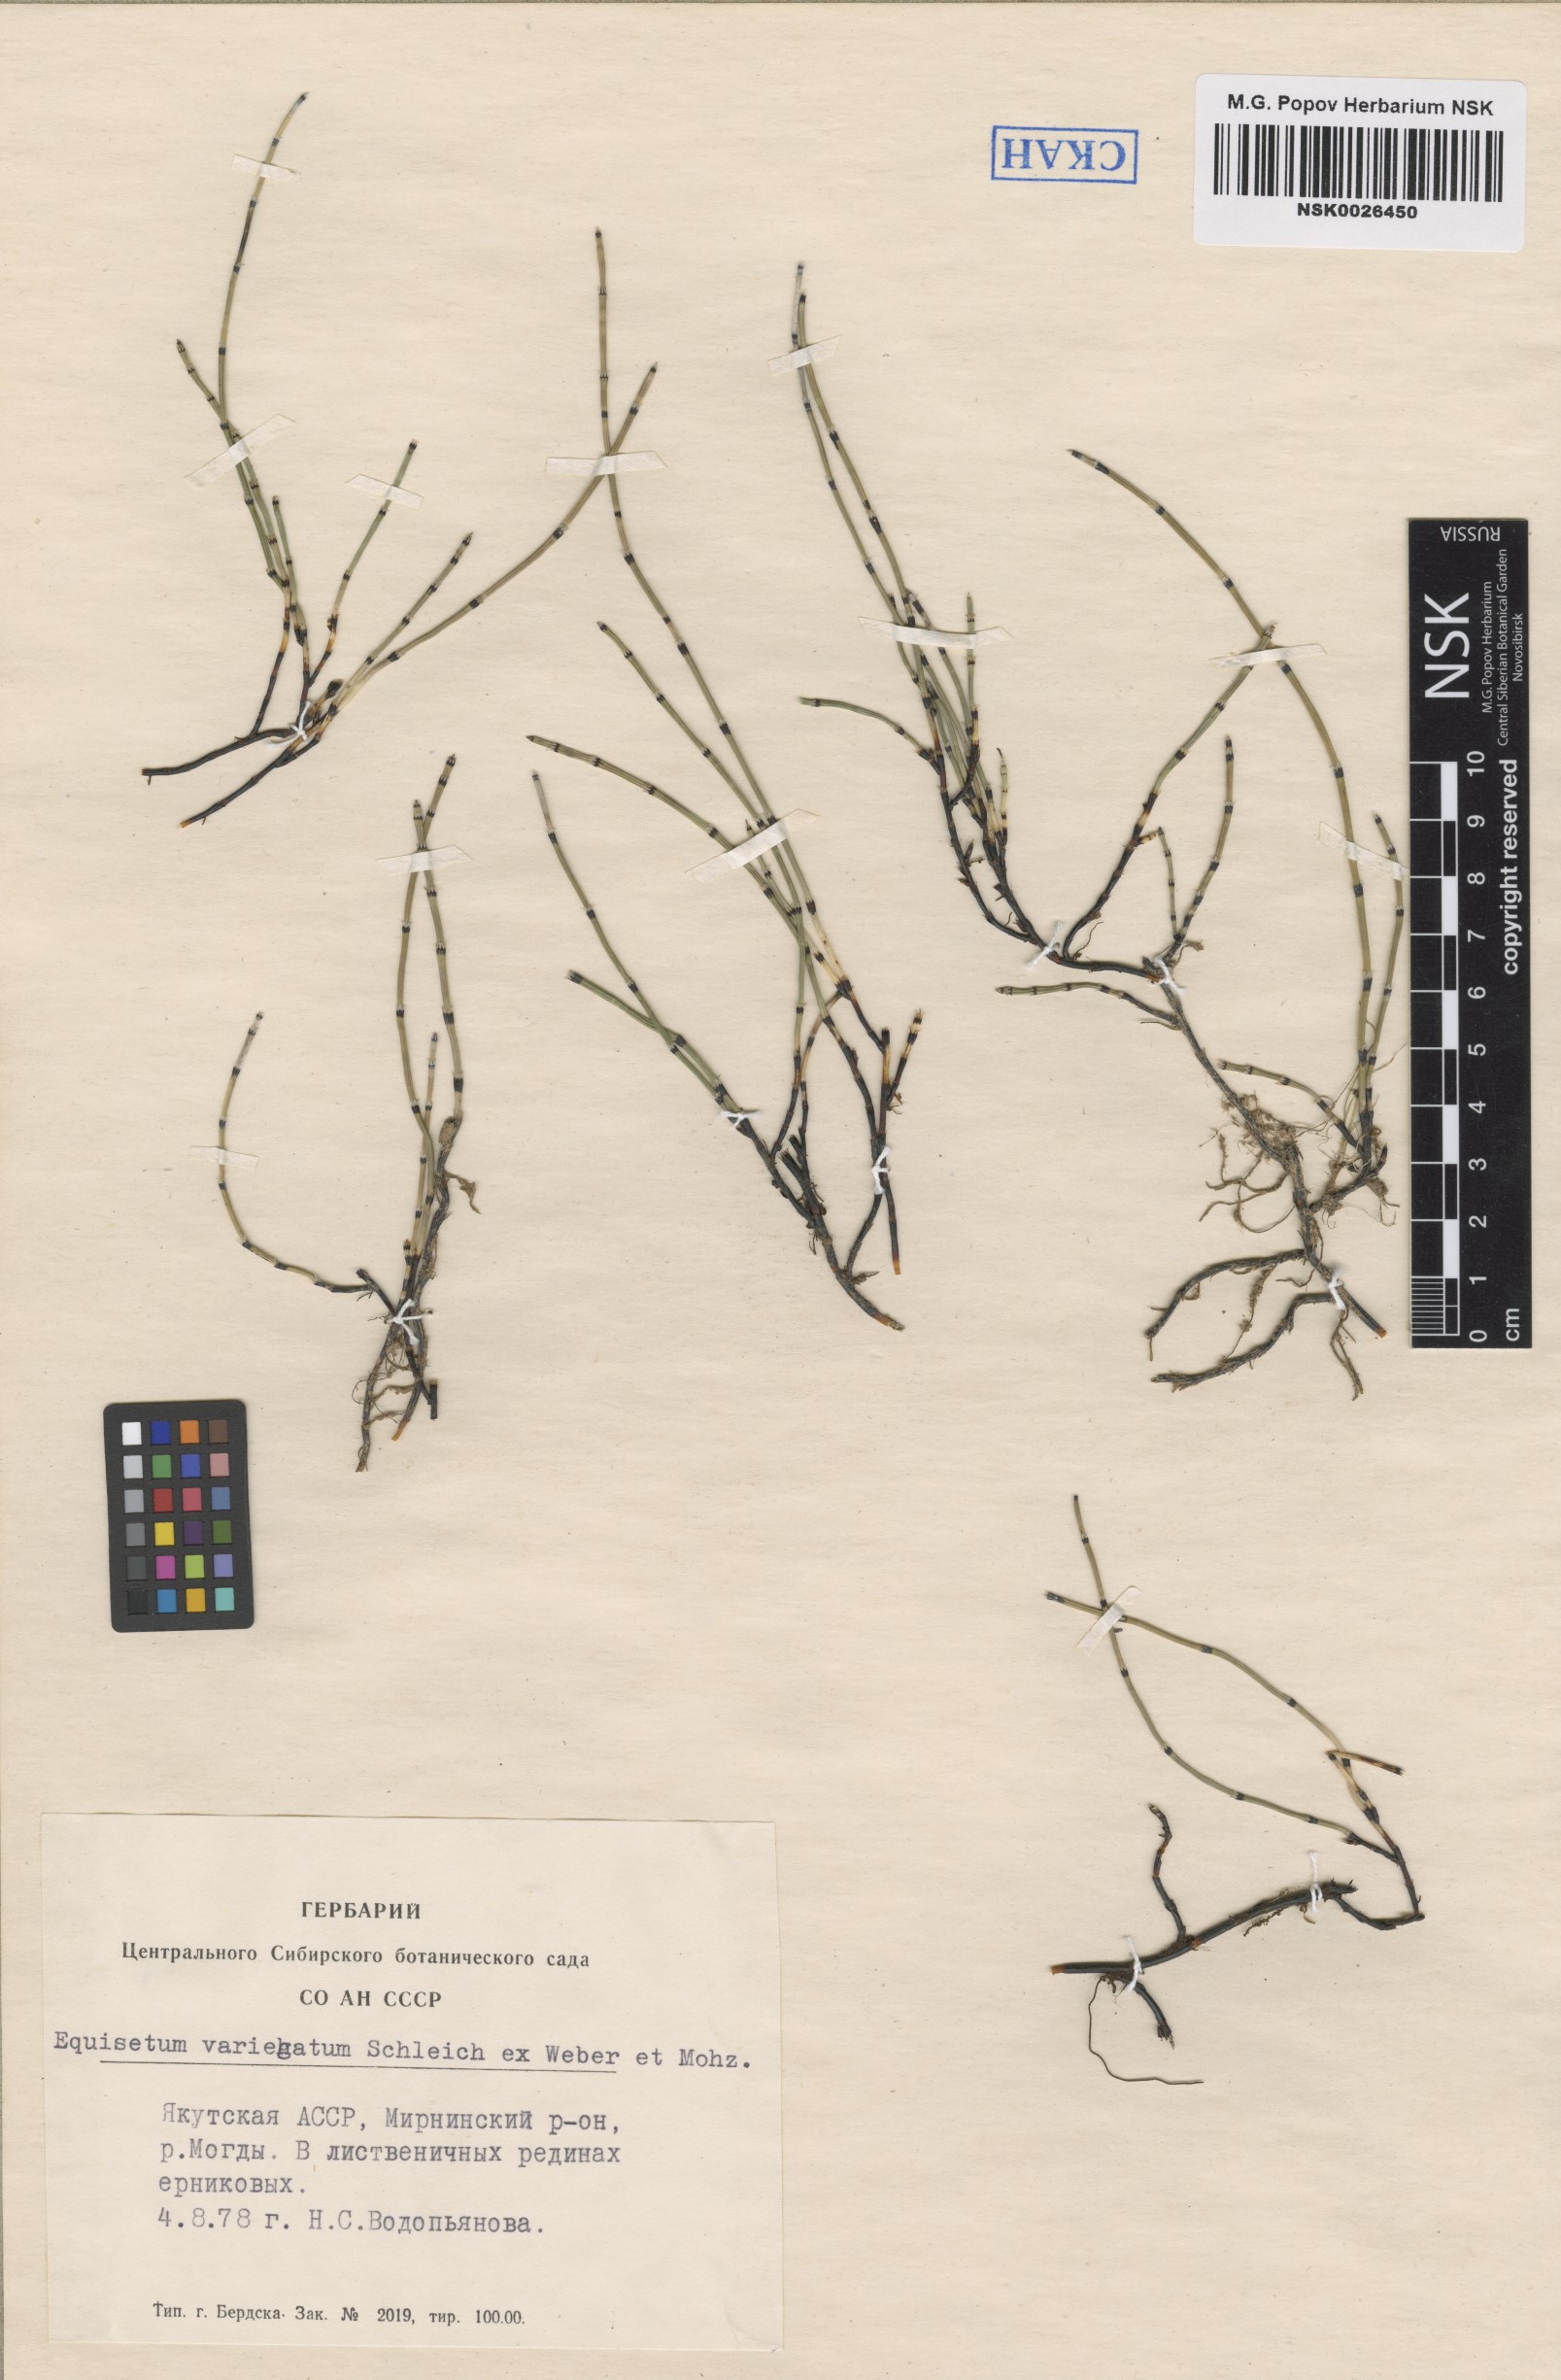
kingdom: Plantae
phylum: Tracheophyta
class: Polypodiopsida
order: Equisetales
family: Equisetaceae
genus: Equisetum
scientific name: Equisetum variegatum
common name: Variegated horsetail
